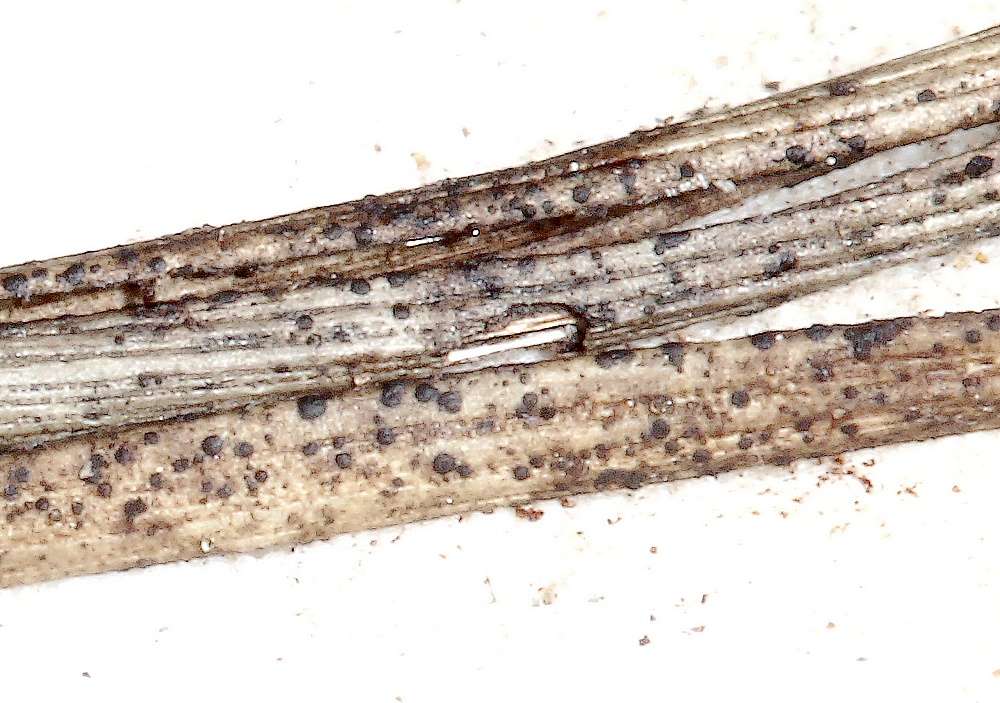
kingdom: Fungi
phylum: Ascomycota
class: Dothideomycetes
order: Microthyriales
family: Micropeltidaceae
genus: Stomiopeltis
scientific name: Stomiopeltis pinastri
